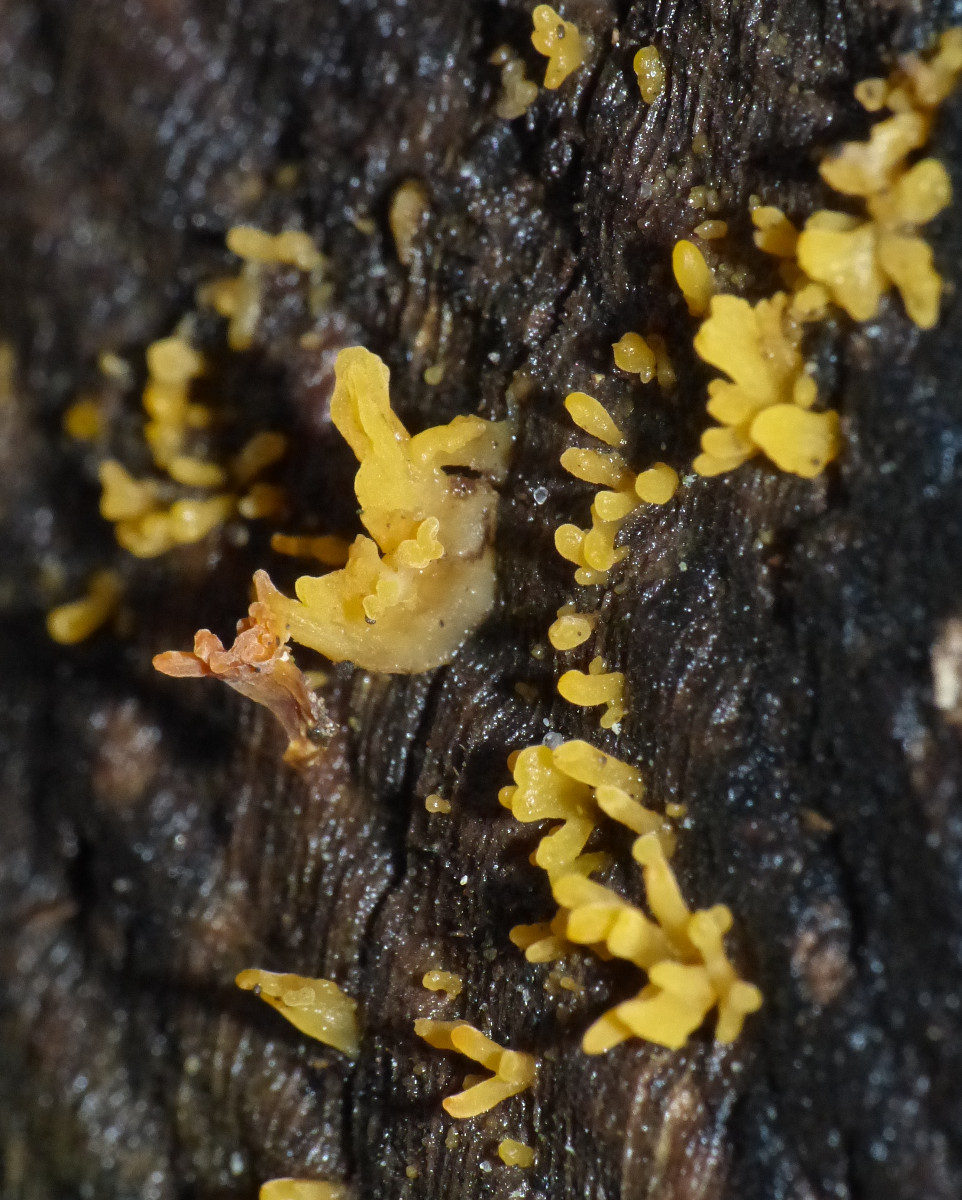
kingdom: Fungi
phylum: Basidiomycota
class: Dacrymycetes
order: Dacrymycetales
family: Dacrymycetaceae
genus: Calocera
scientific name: Calocera cornea
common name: liden guldgaffel
